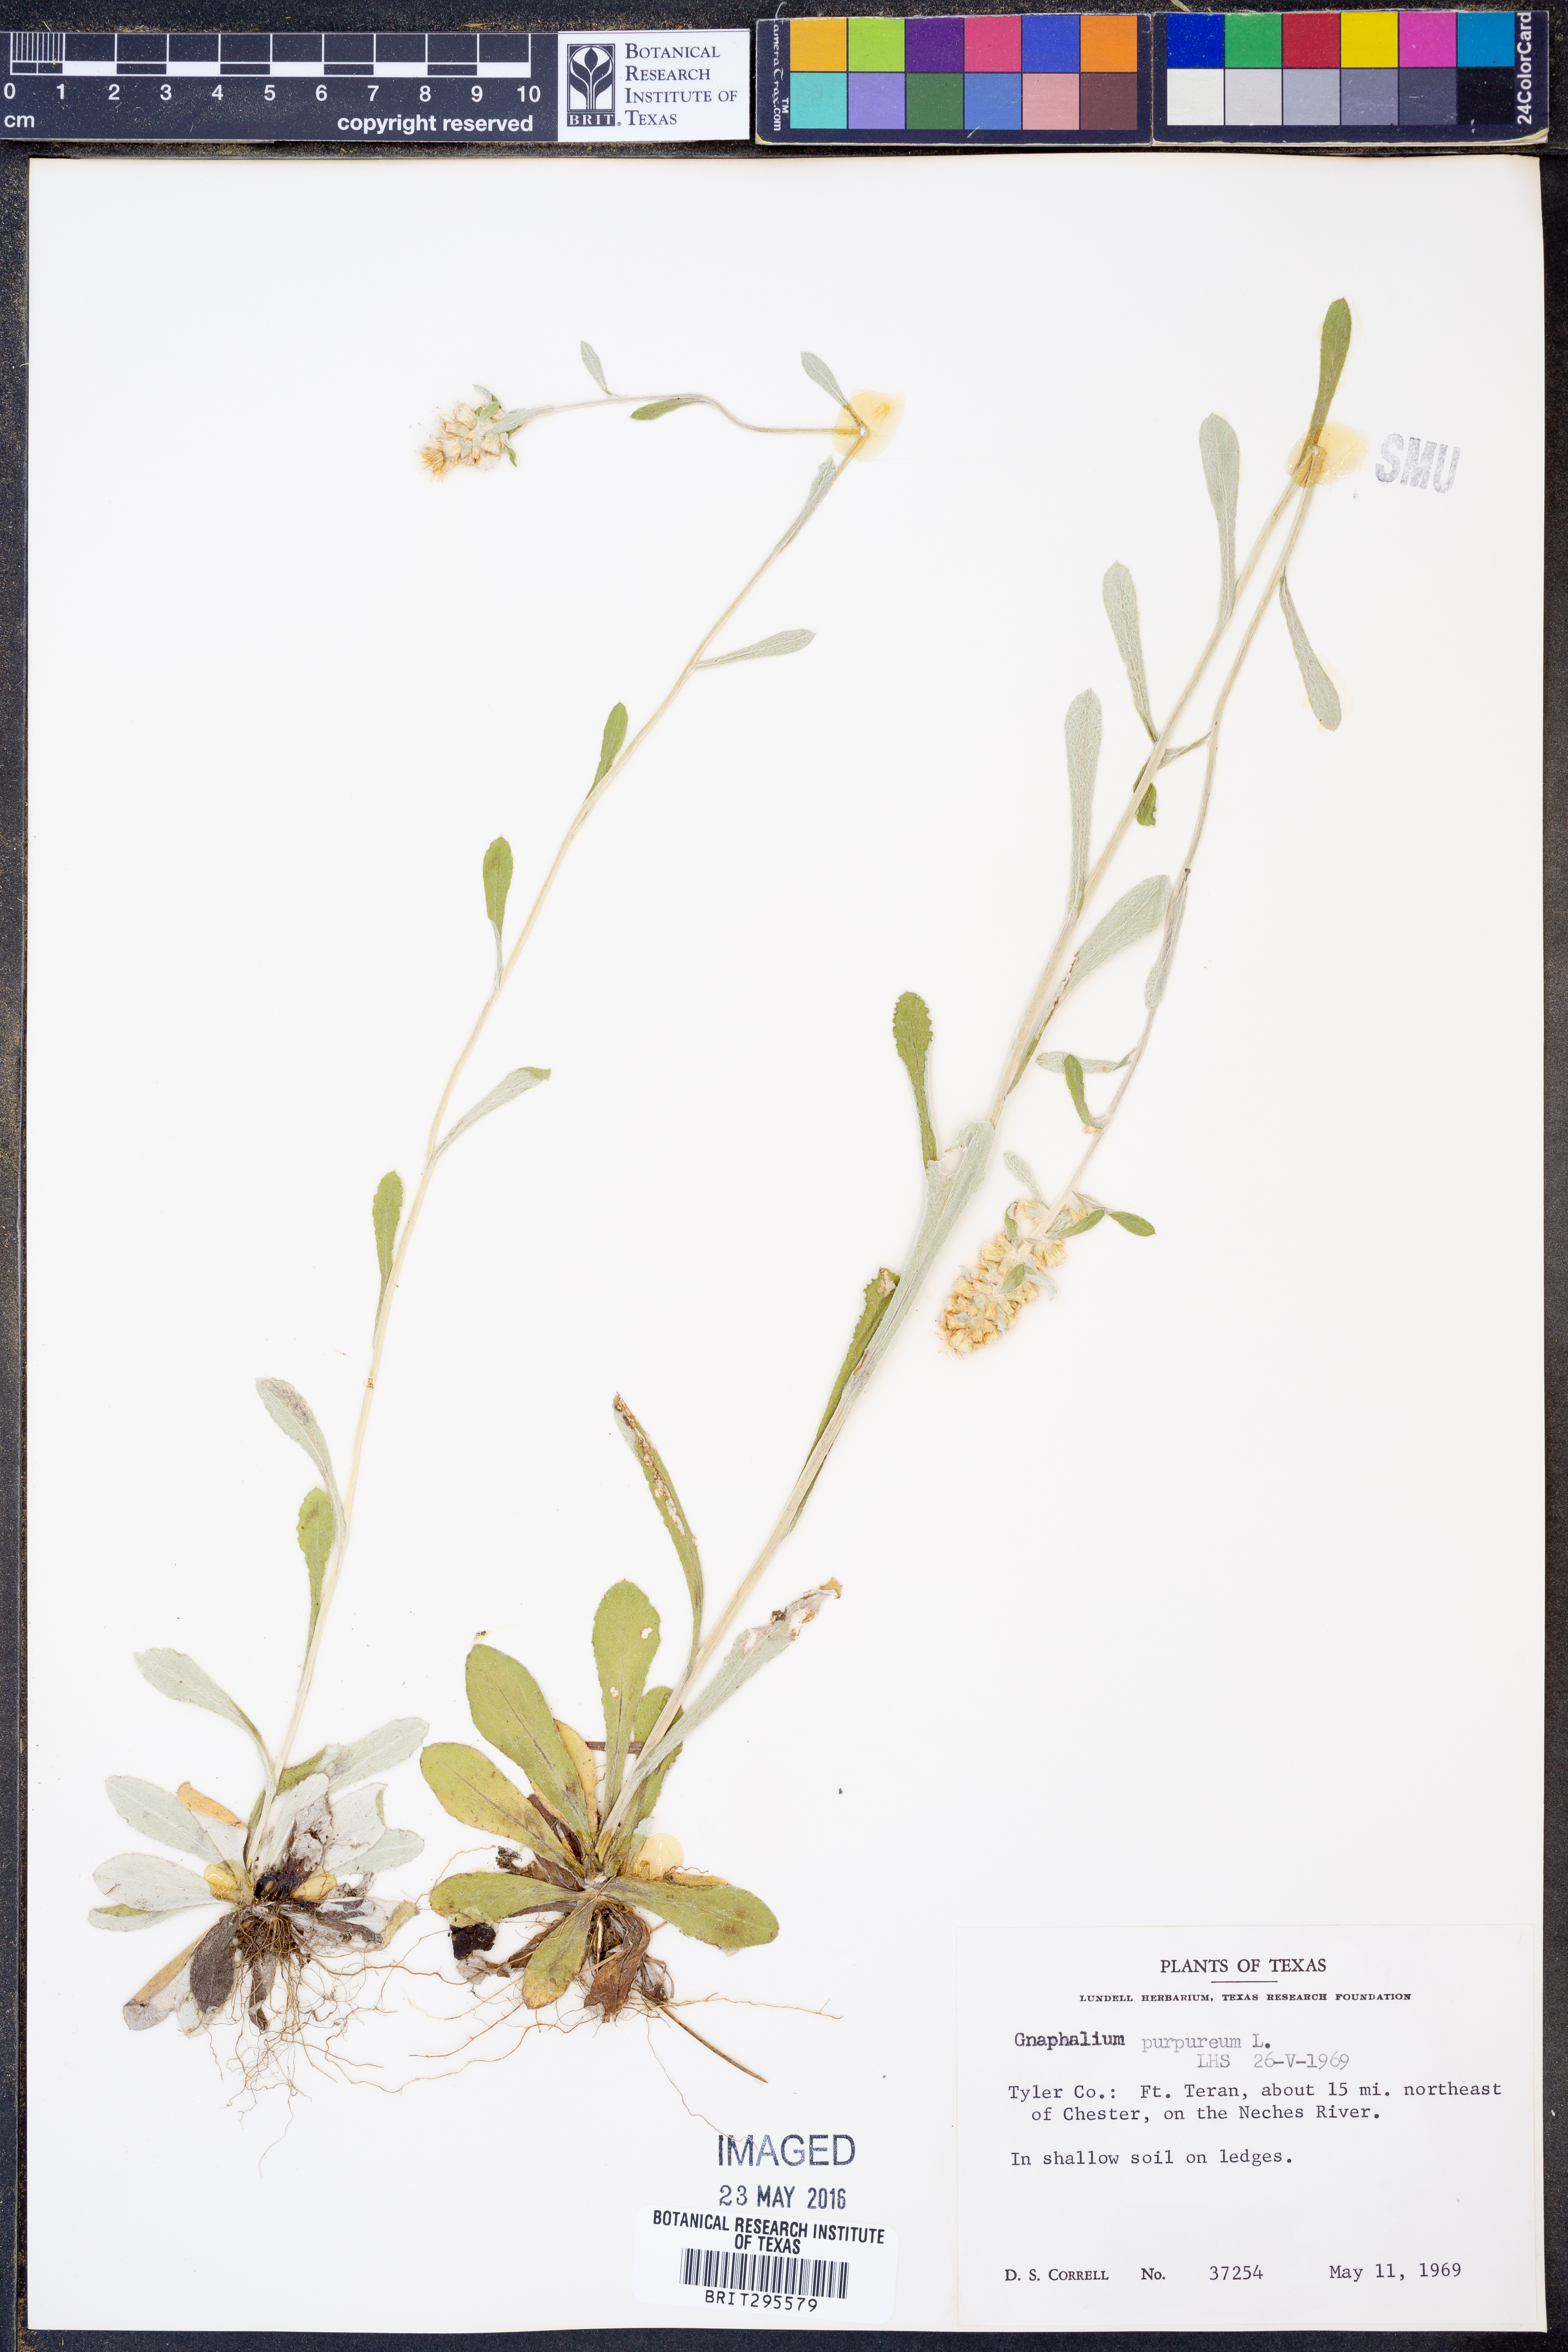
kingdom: Plantae
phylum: Tracheophyta
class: Magnoliopsida
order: Asterales
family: Asteraceae
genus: Gamochaeta
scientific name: Gamochaeta purpurea
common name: Purple cudweed
